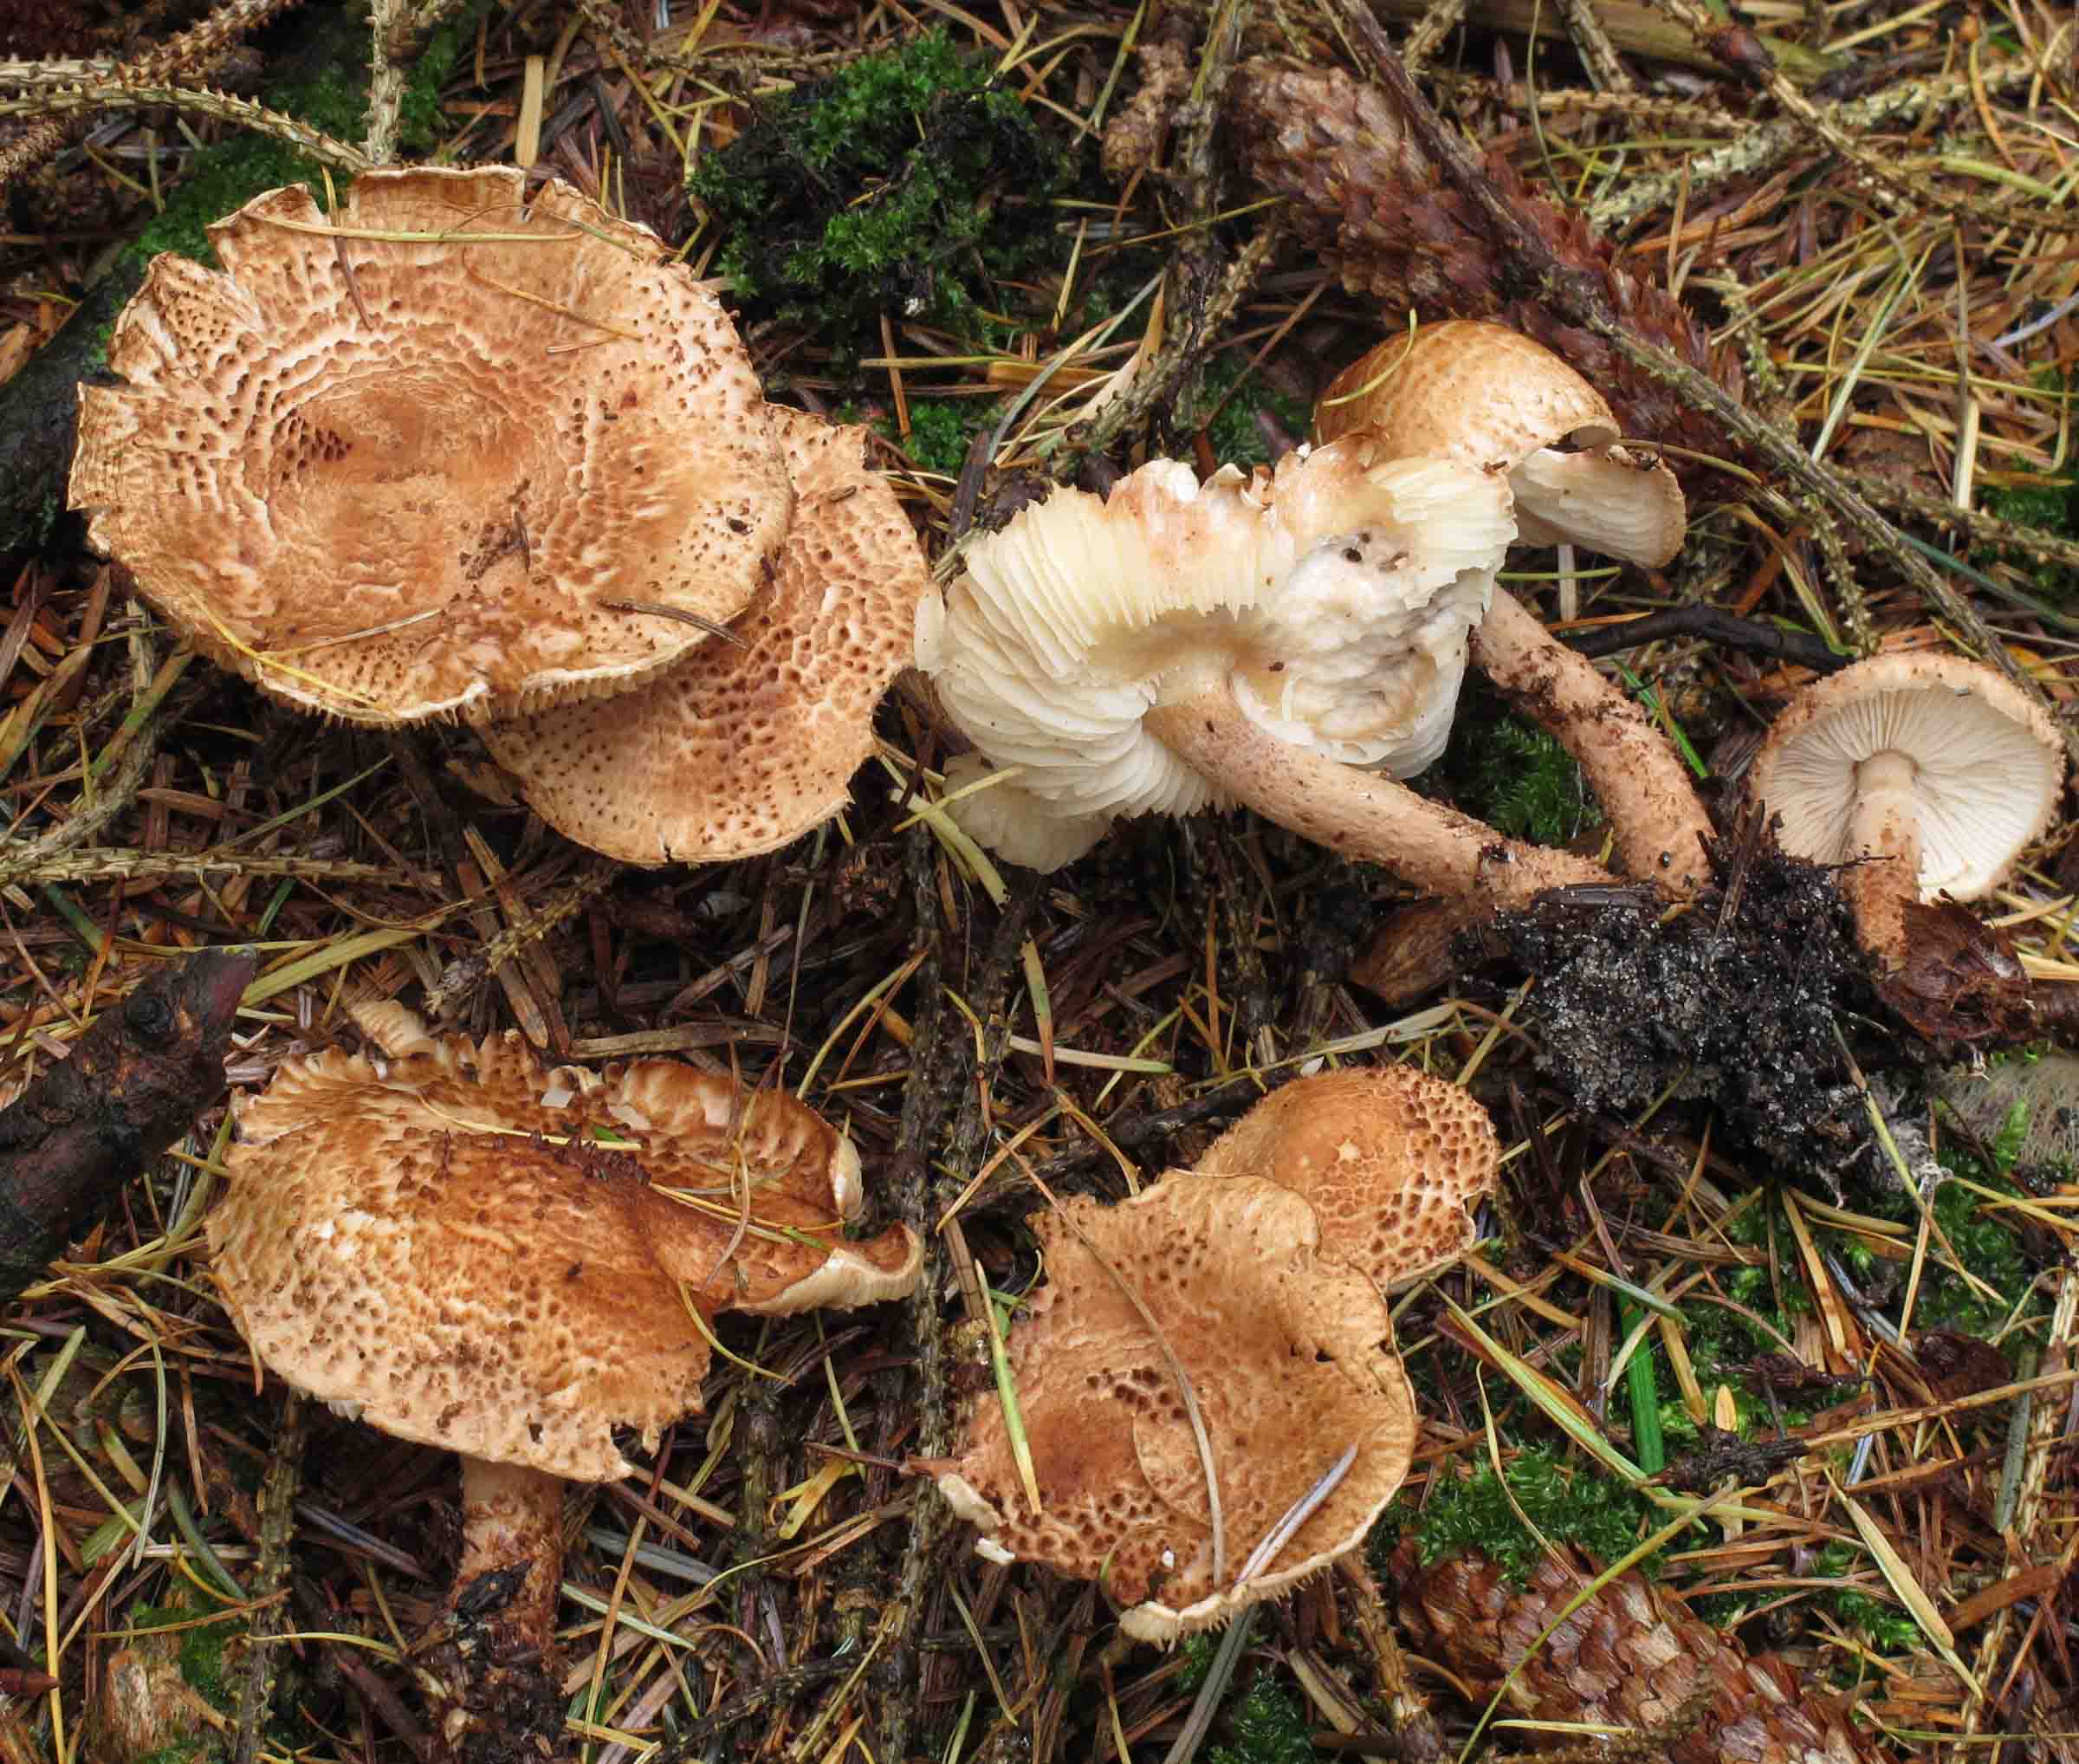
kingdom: Fungi
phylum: Basidiomycota
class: Agaricomycetes
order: Agaricales
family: Agaricaceae
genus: Echinoderma
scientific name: Echinoderma echinaceum
